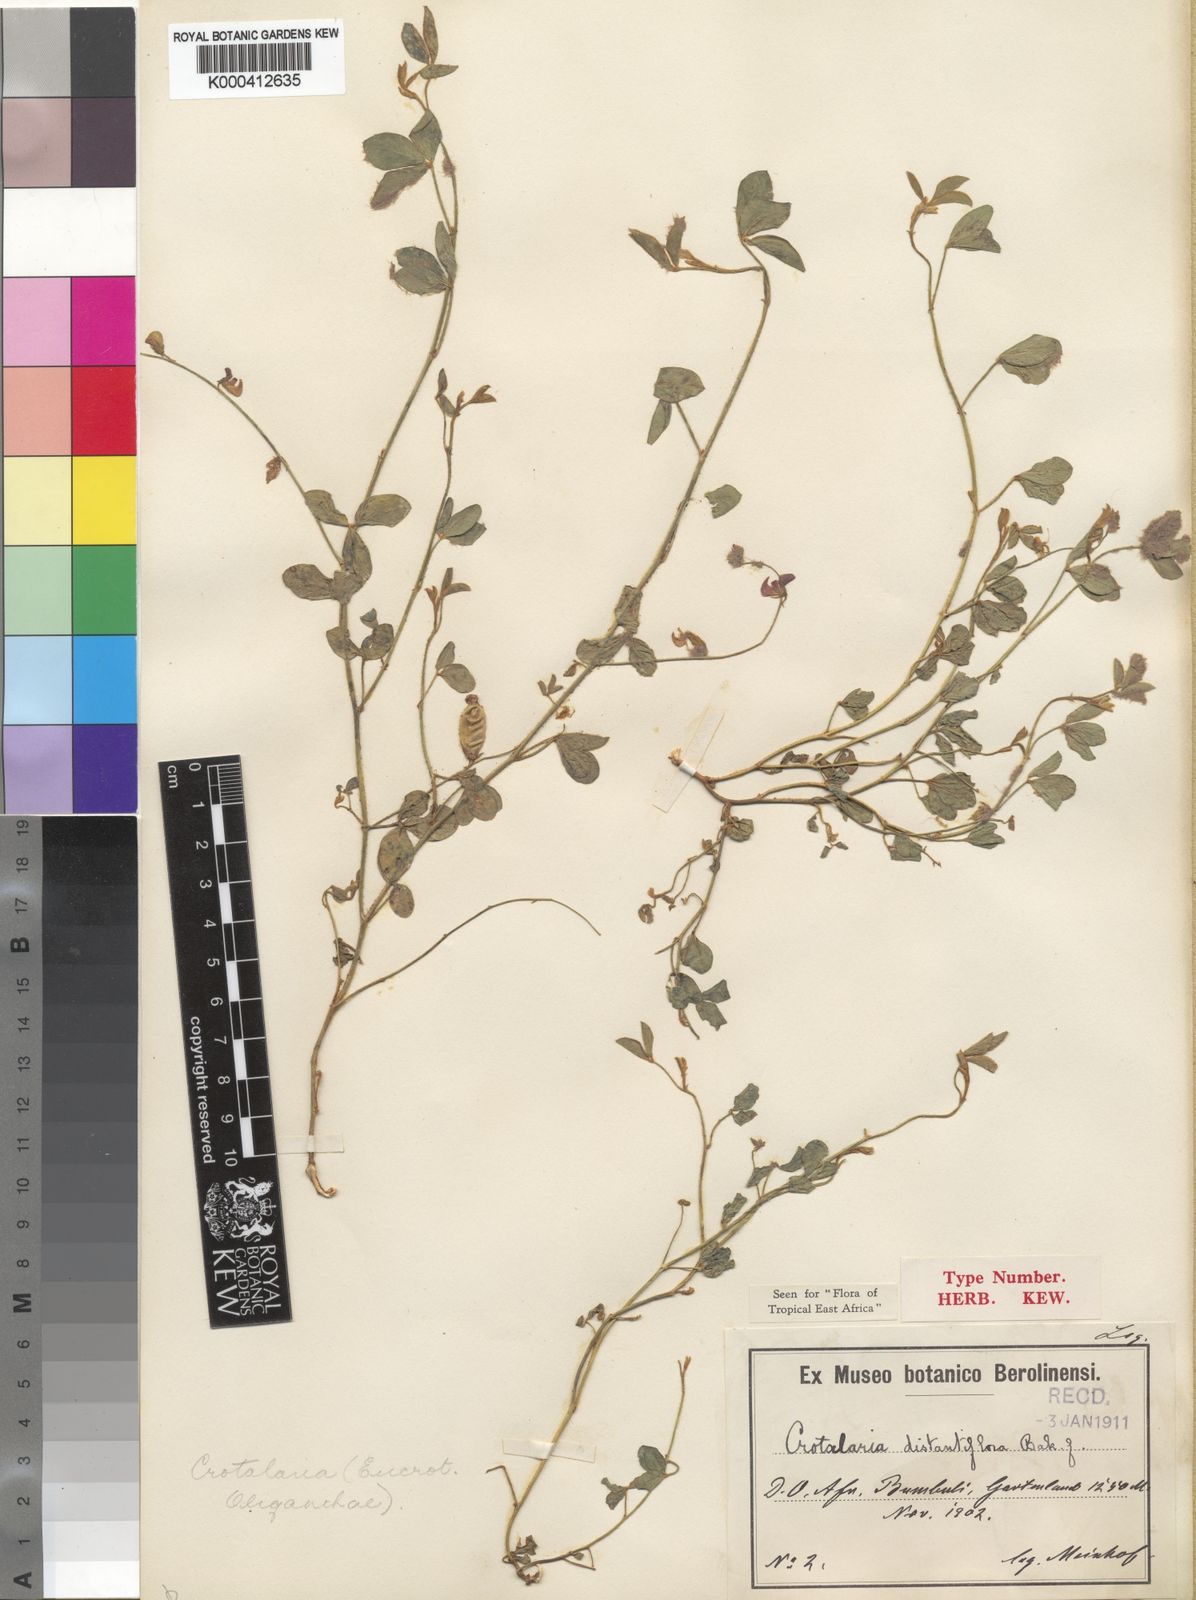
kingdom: Plantae
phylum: Tracheophyta
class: Magnoliopsida
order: Fabales
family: Fabaceae
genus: Crotalaria
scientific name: Crotalaria distantiflora
